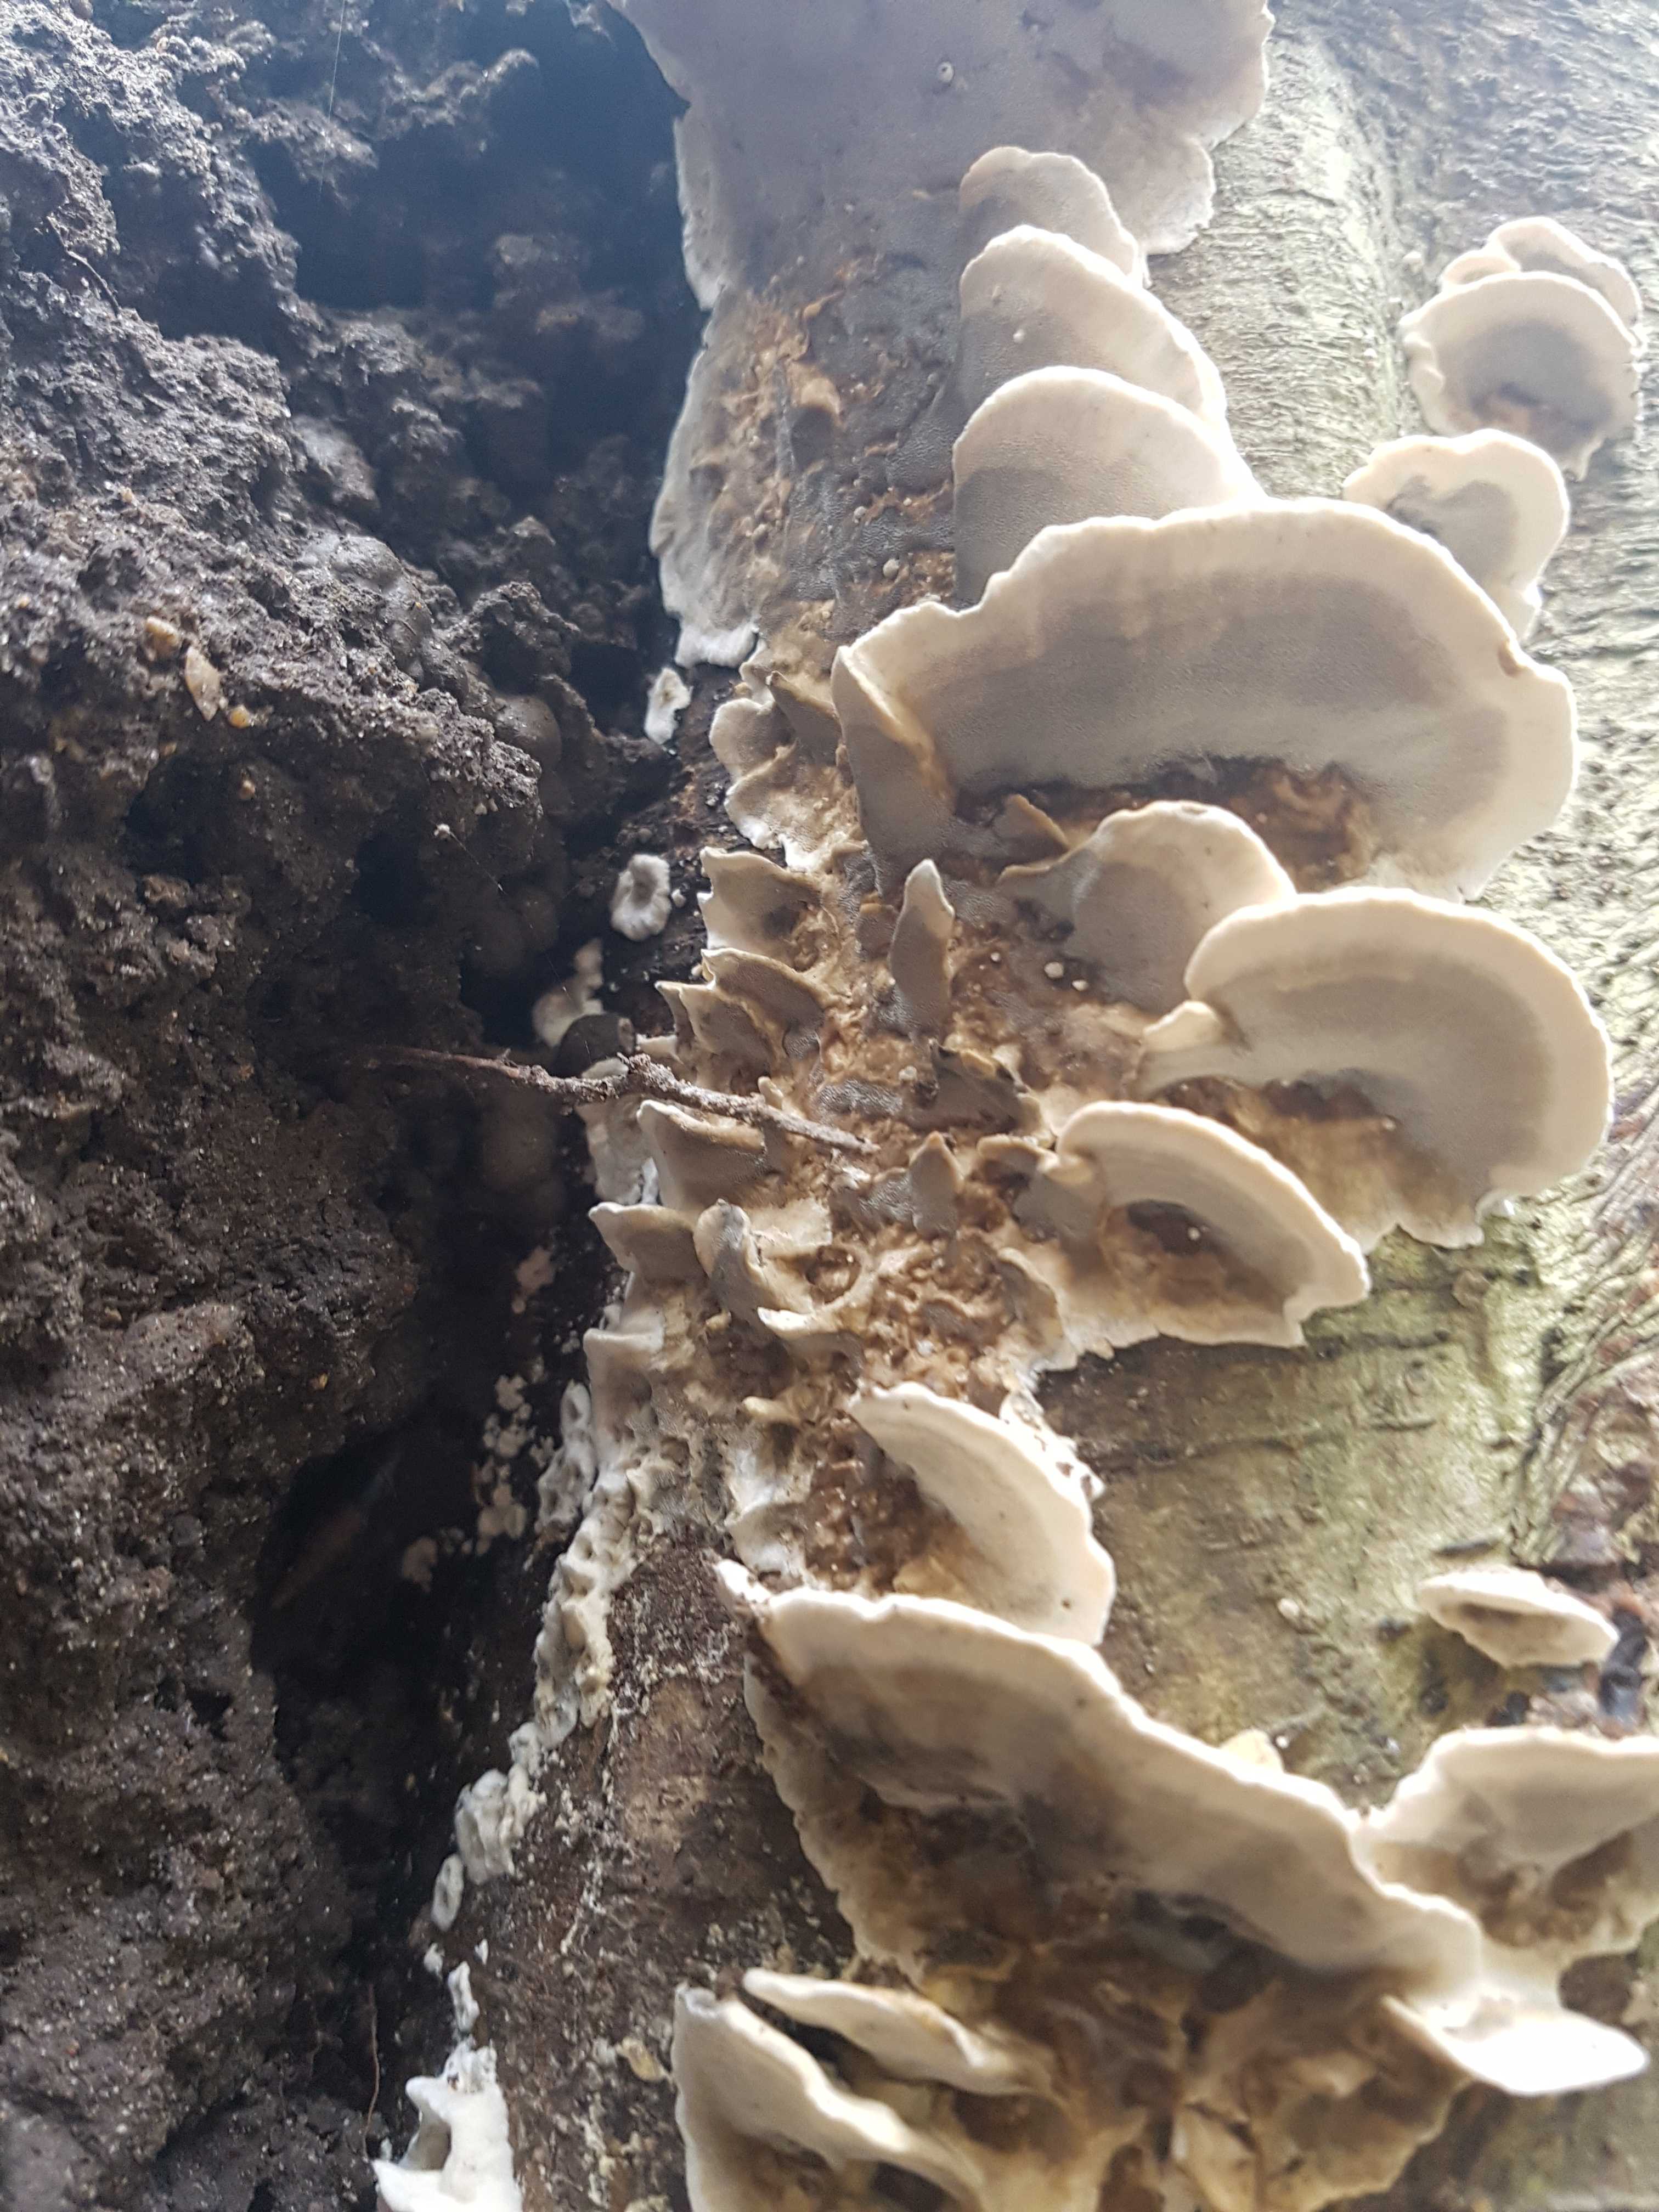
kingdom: Fungi
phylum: Basidiomycota
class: Agaricomycetes
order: Polyporales
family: Phanerochaetaceae
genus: Bjerkandera
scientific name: Bjerkandera adusta
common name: sveden sodporesvamp
